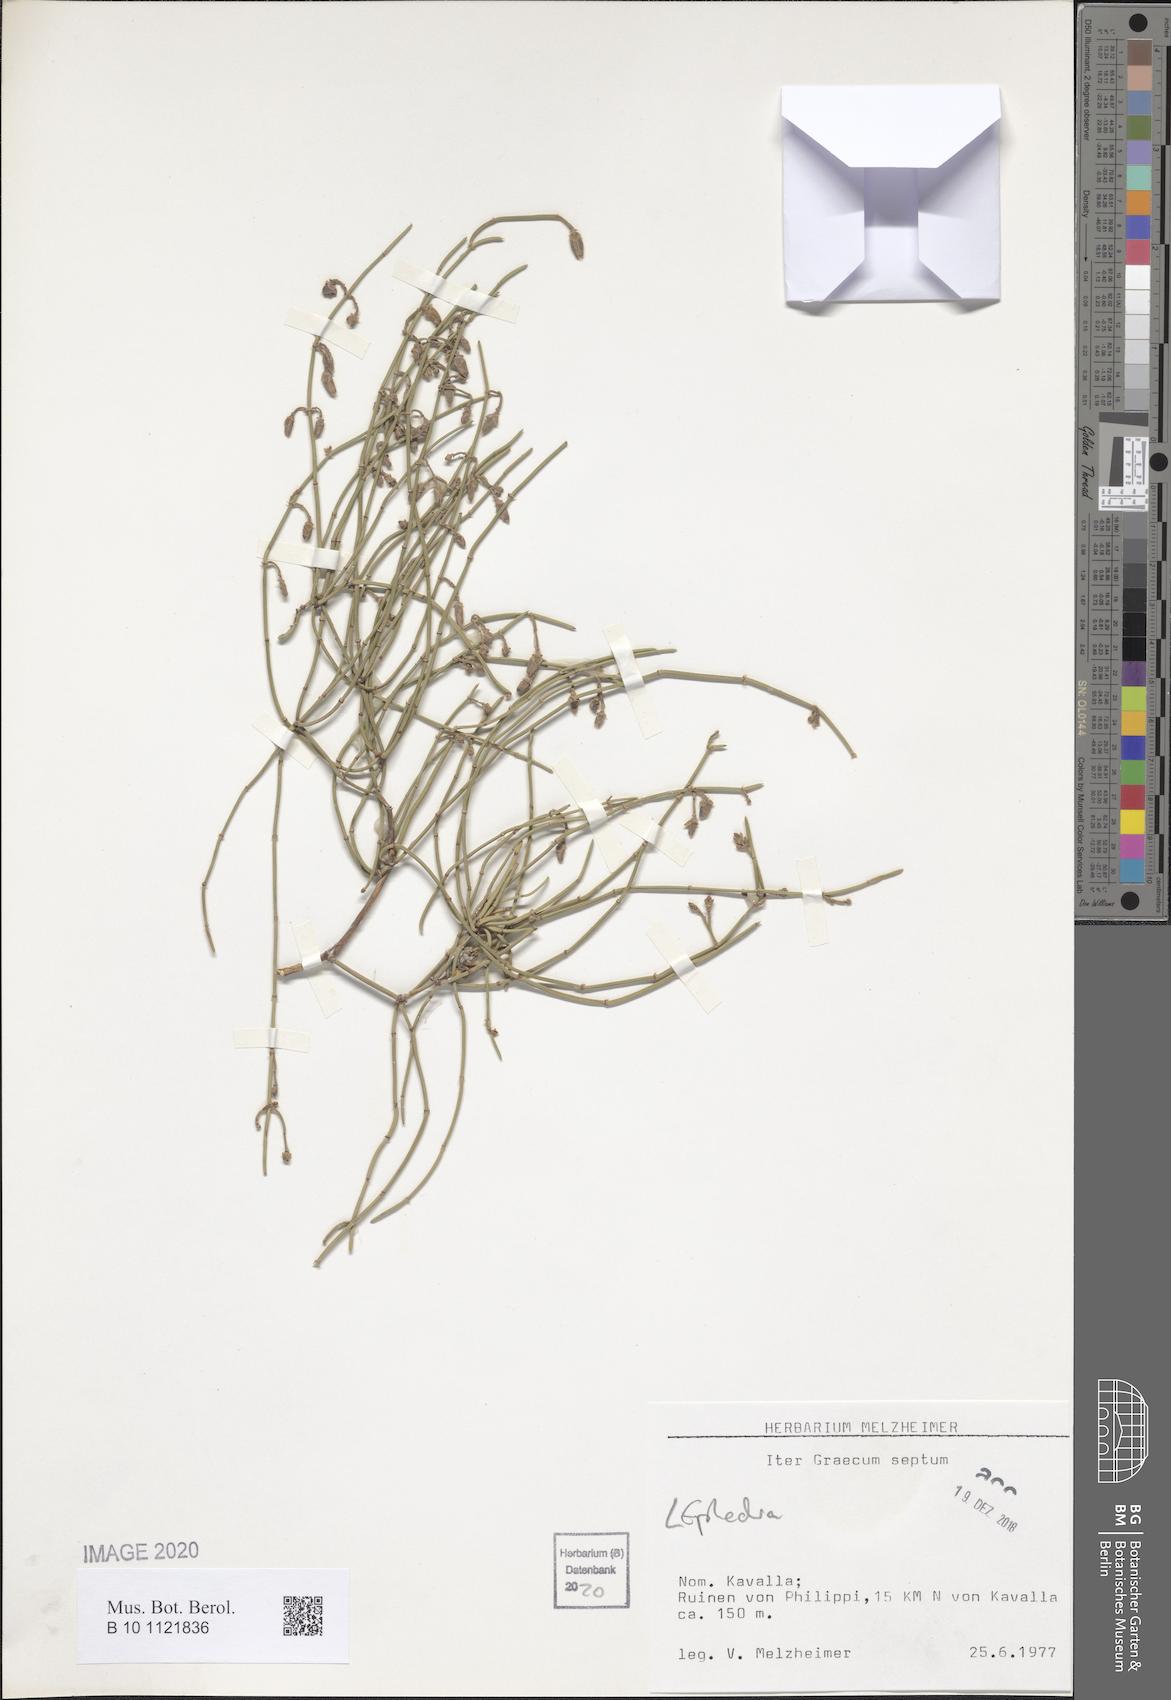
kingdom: Plantae
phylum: Tracheophyta
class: Gnetopsida
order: Ephedrales
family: Ephedraceae
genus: Ephedra
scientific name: Ephedra
